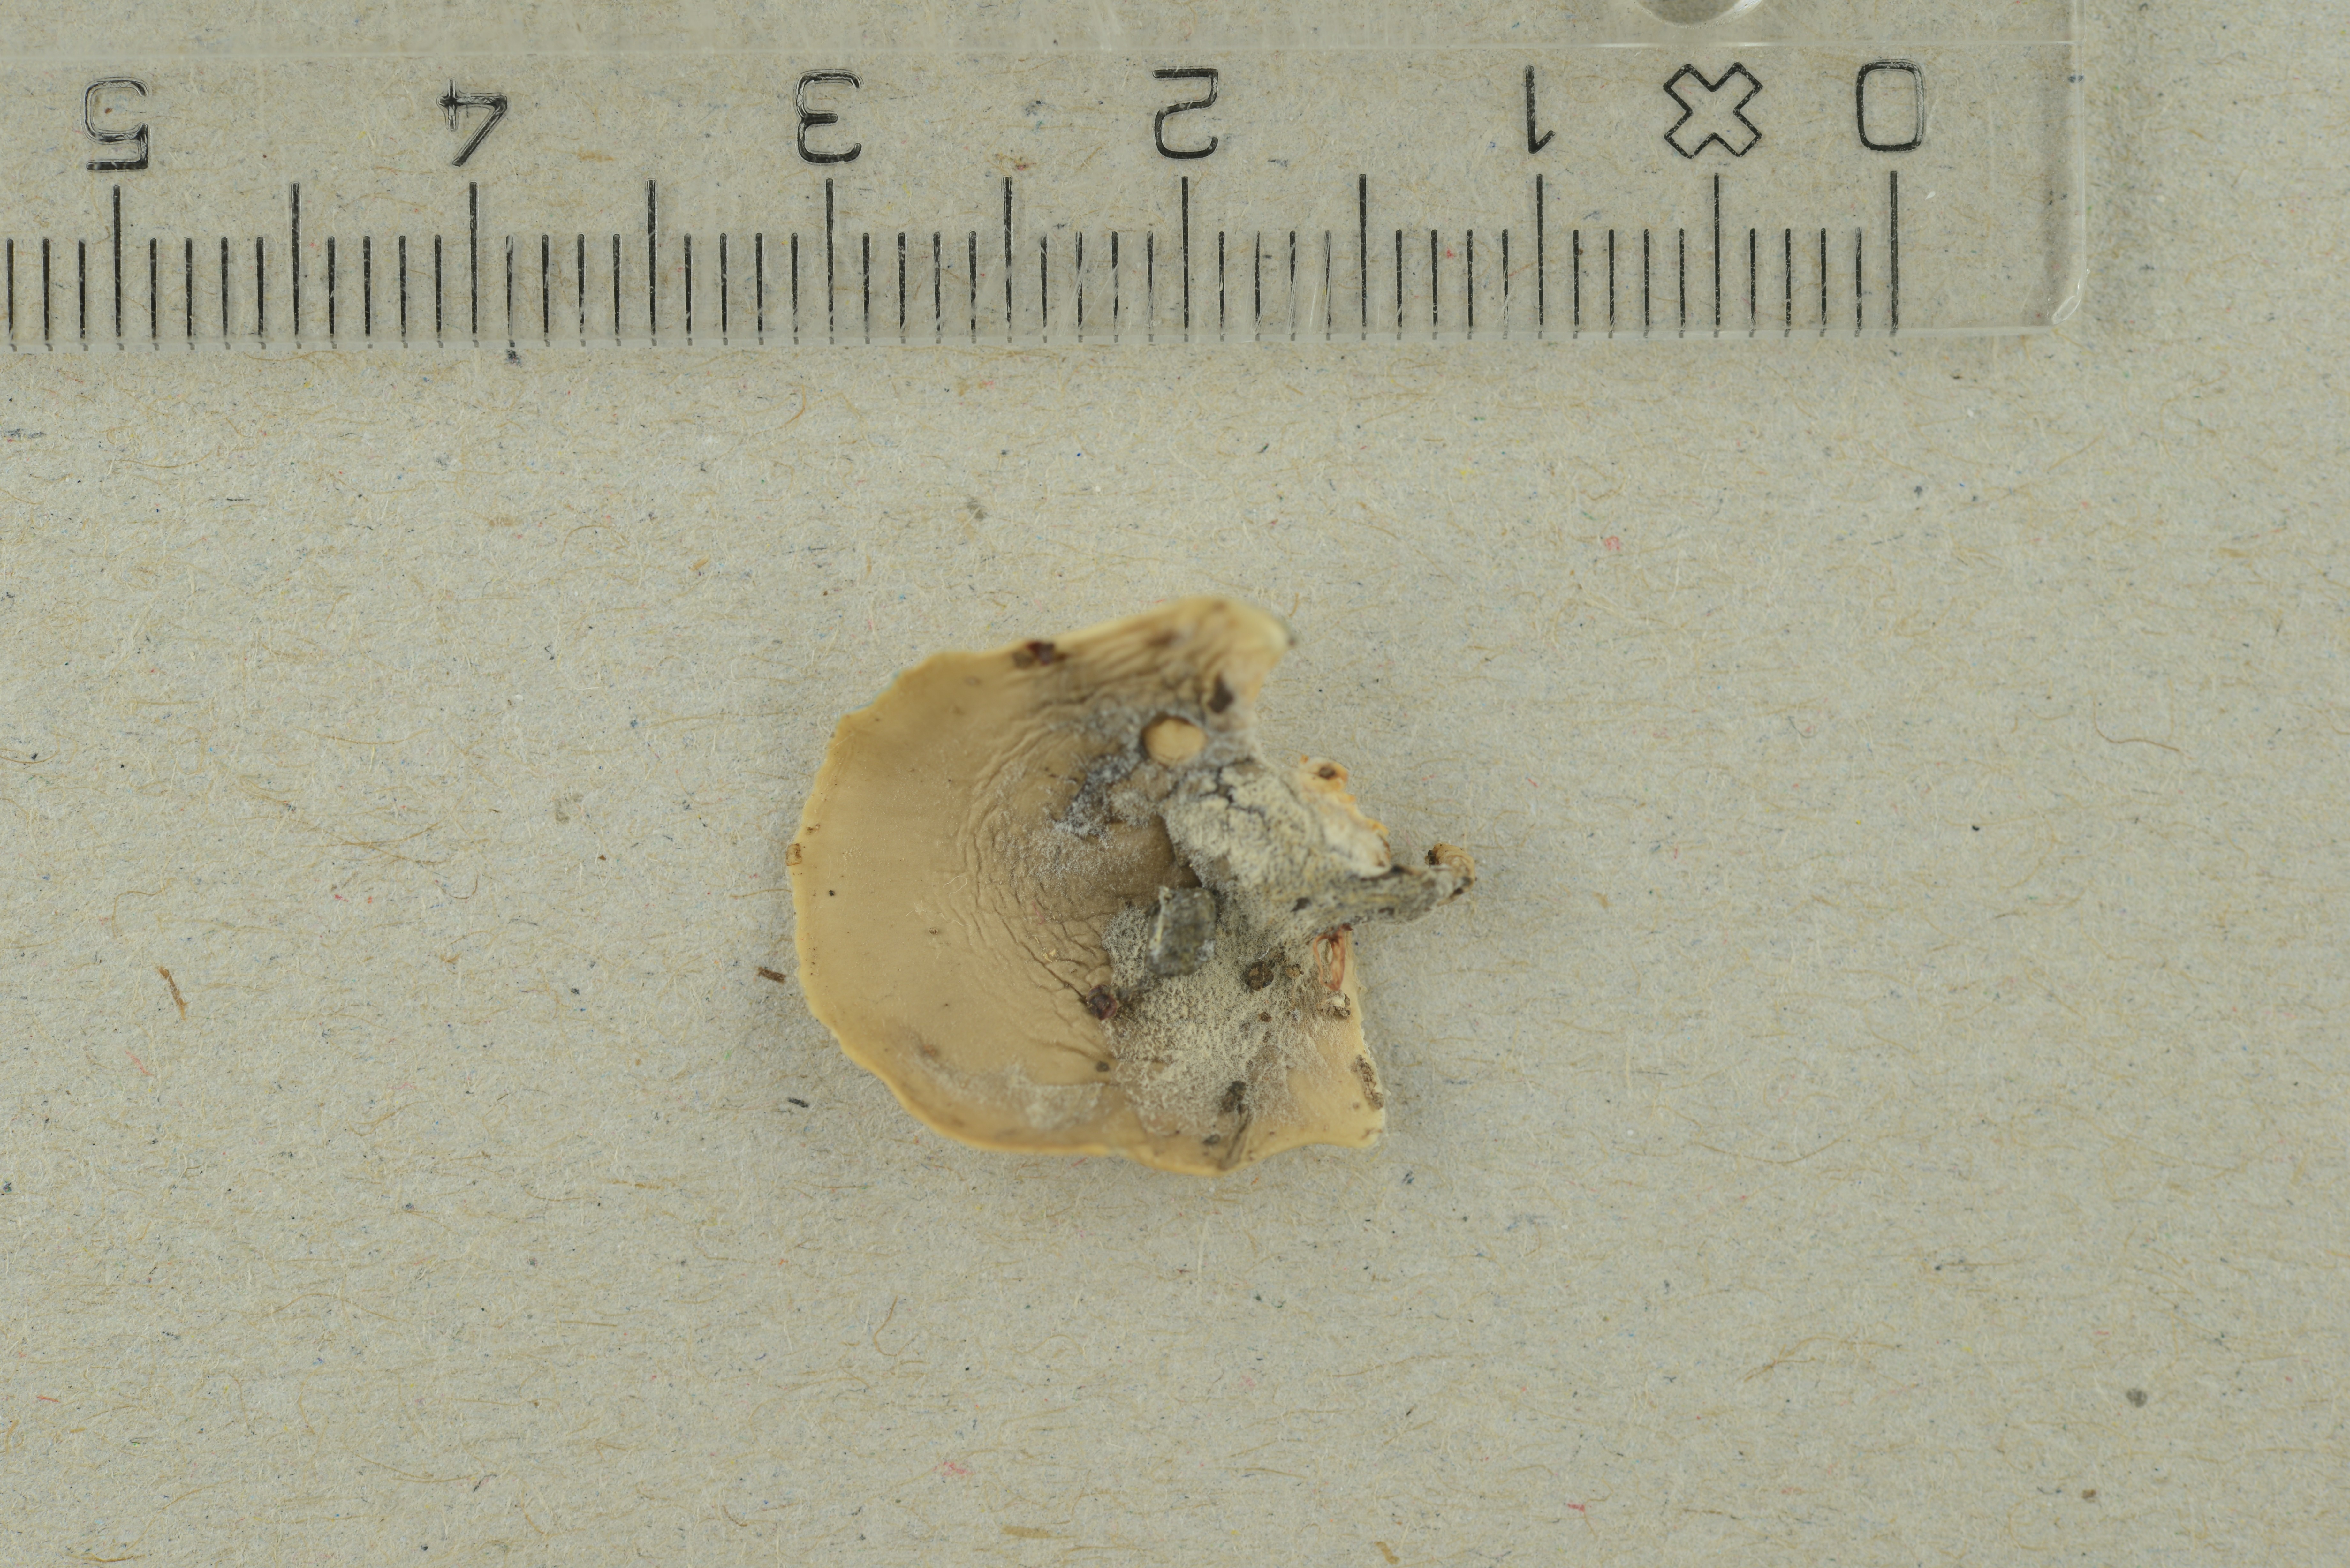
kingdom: Fungi
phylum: Basidiomycota
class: Agaricomycetes
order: Agaricales
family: Pleurotaceae
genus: Hohenbuehelia
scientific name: Hohenbuehelia atrocoerulea
